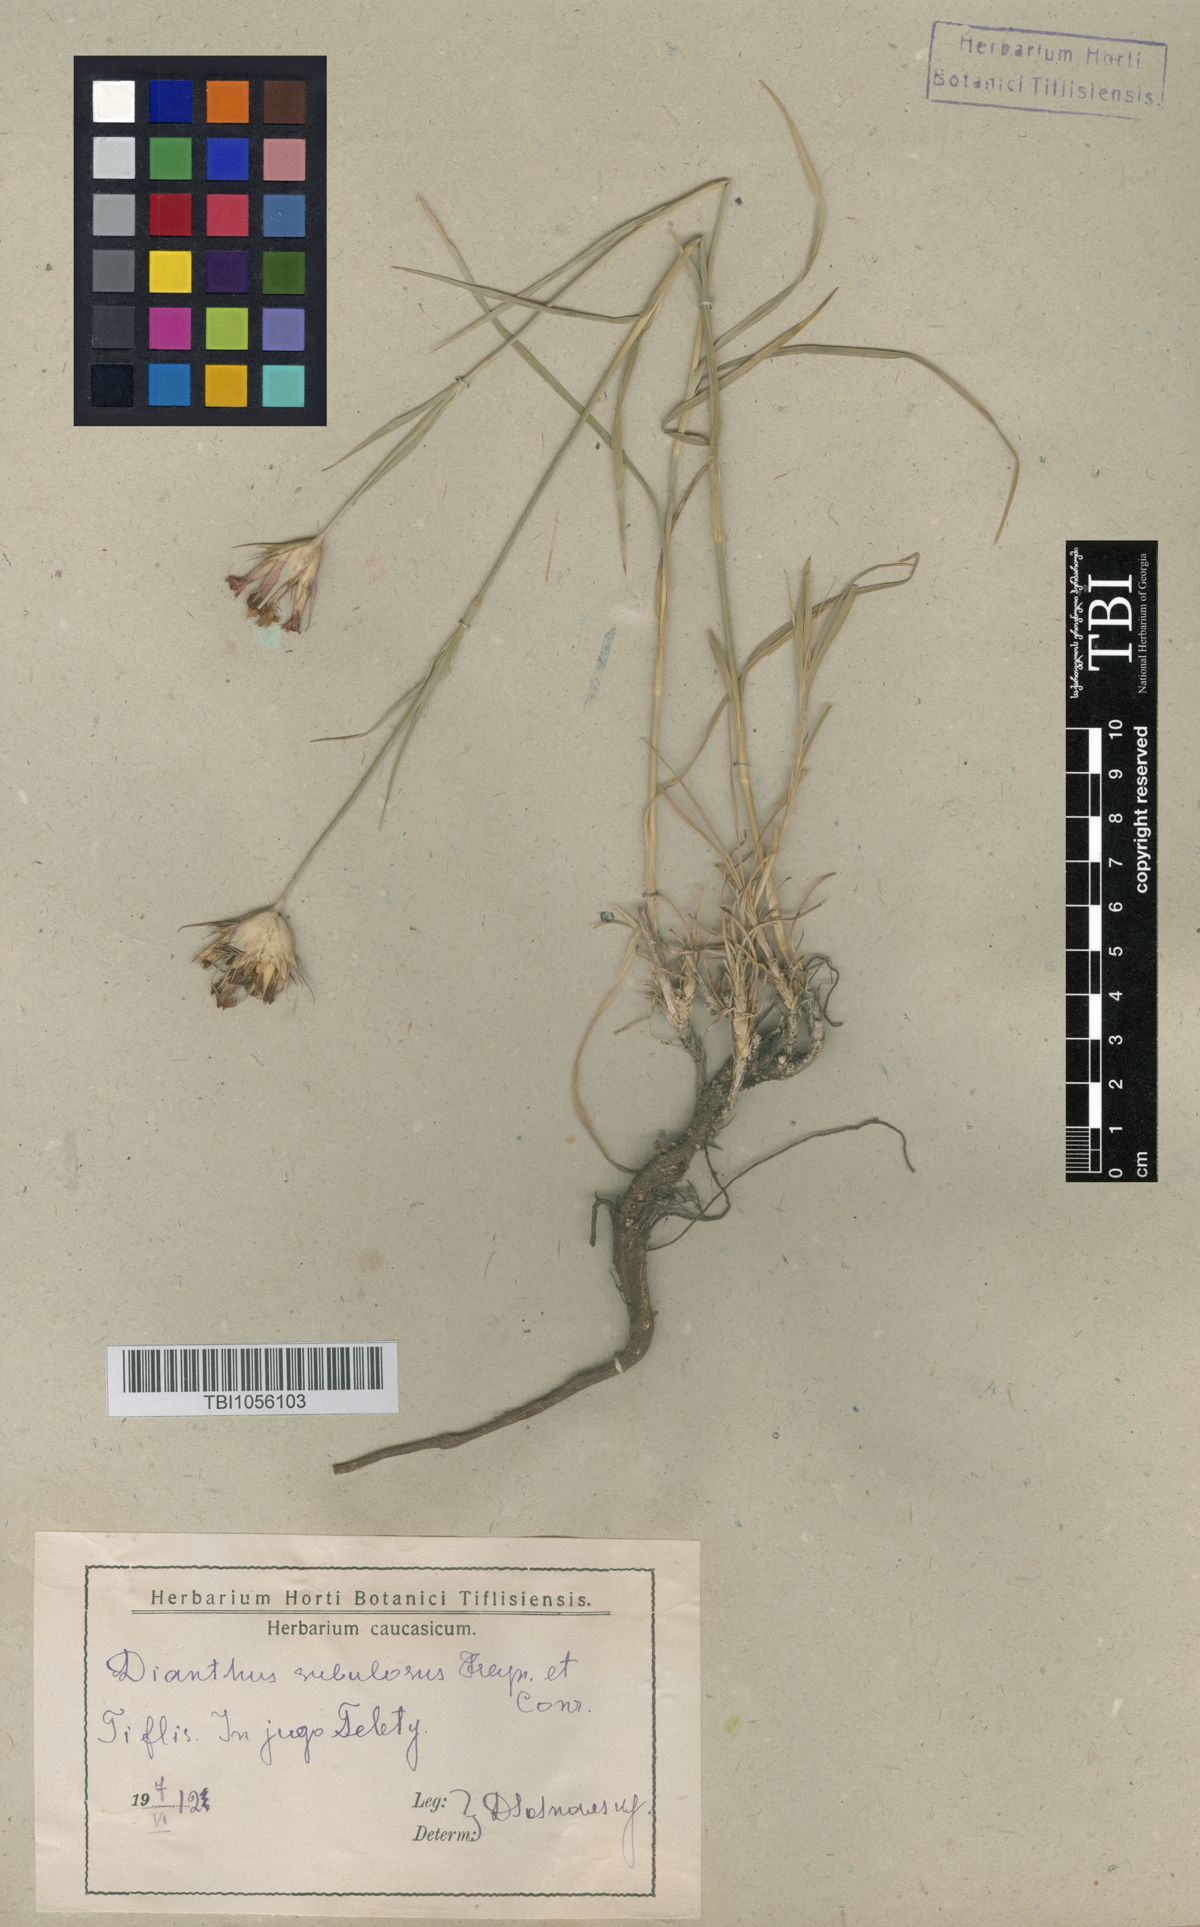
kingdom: Plantae
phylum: Tracheophyta
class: Magnoliopsida
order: Caryophyllales
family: Caryophyllaceae
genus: Dianthus
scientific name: Dianthus subulosus
